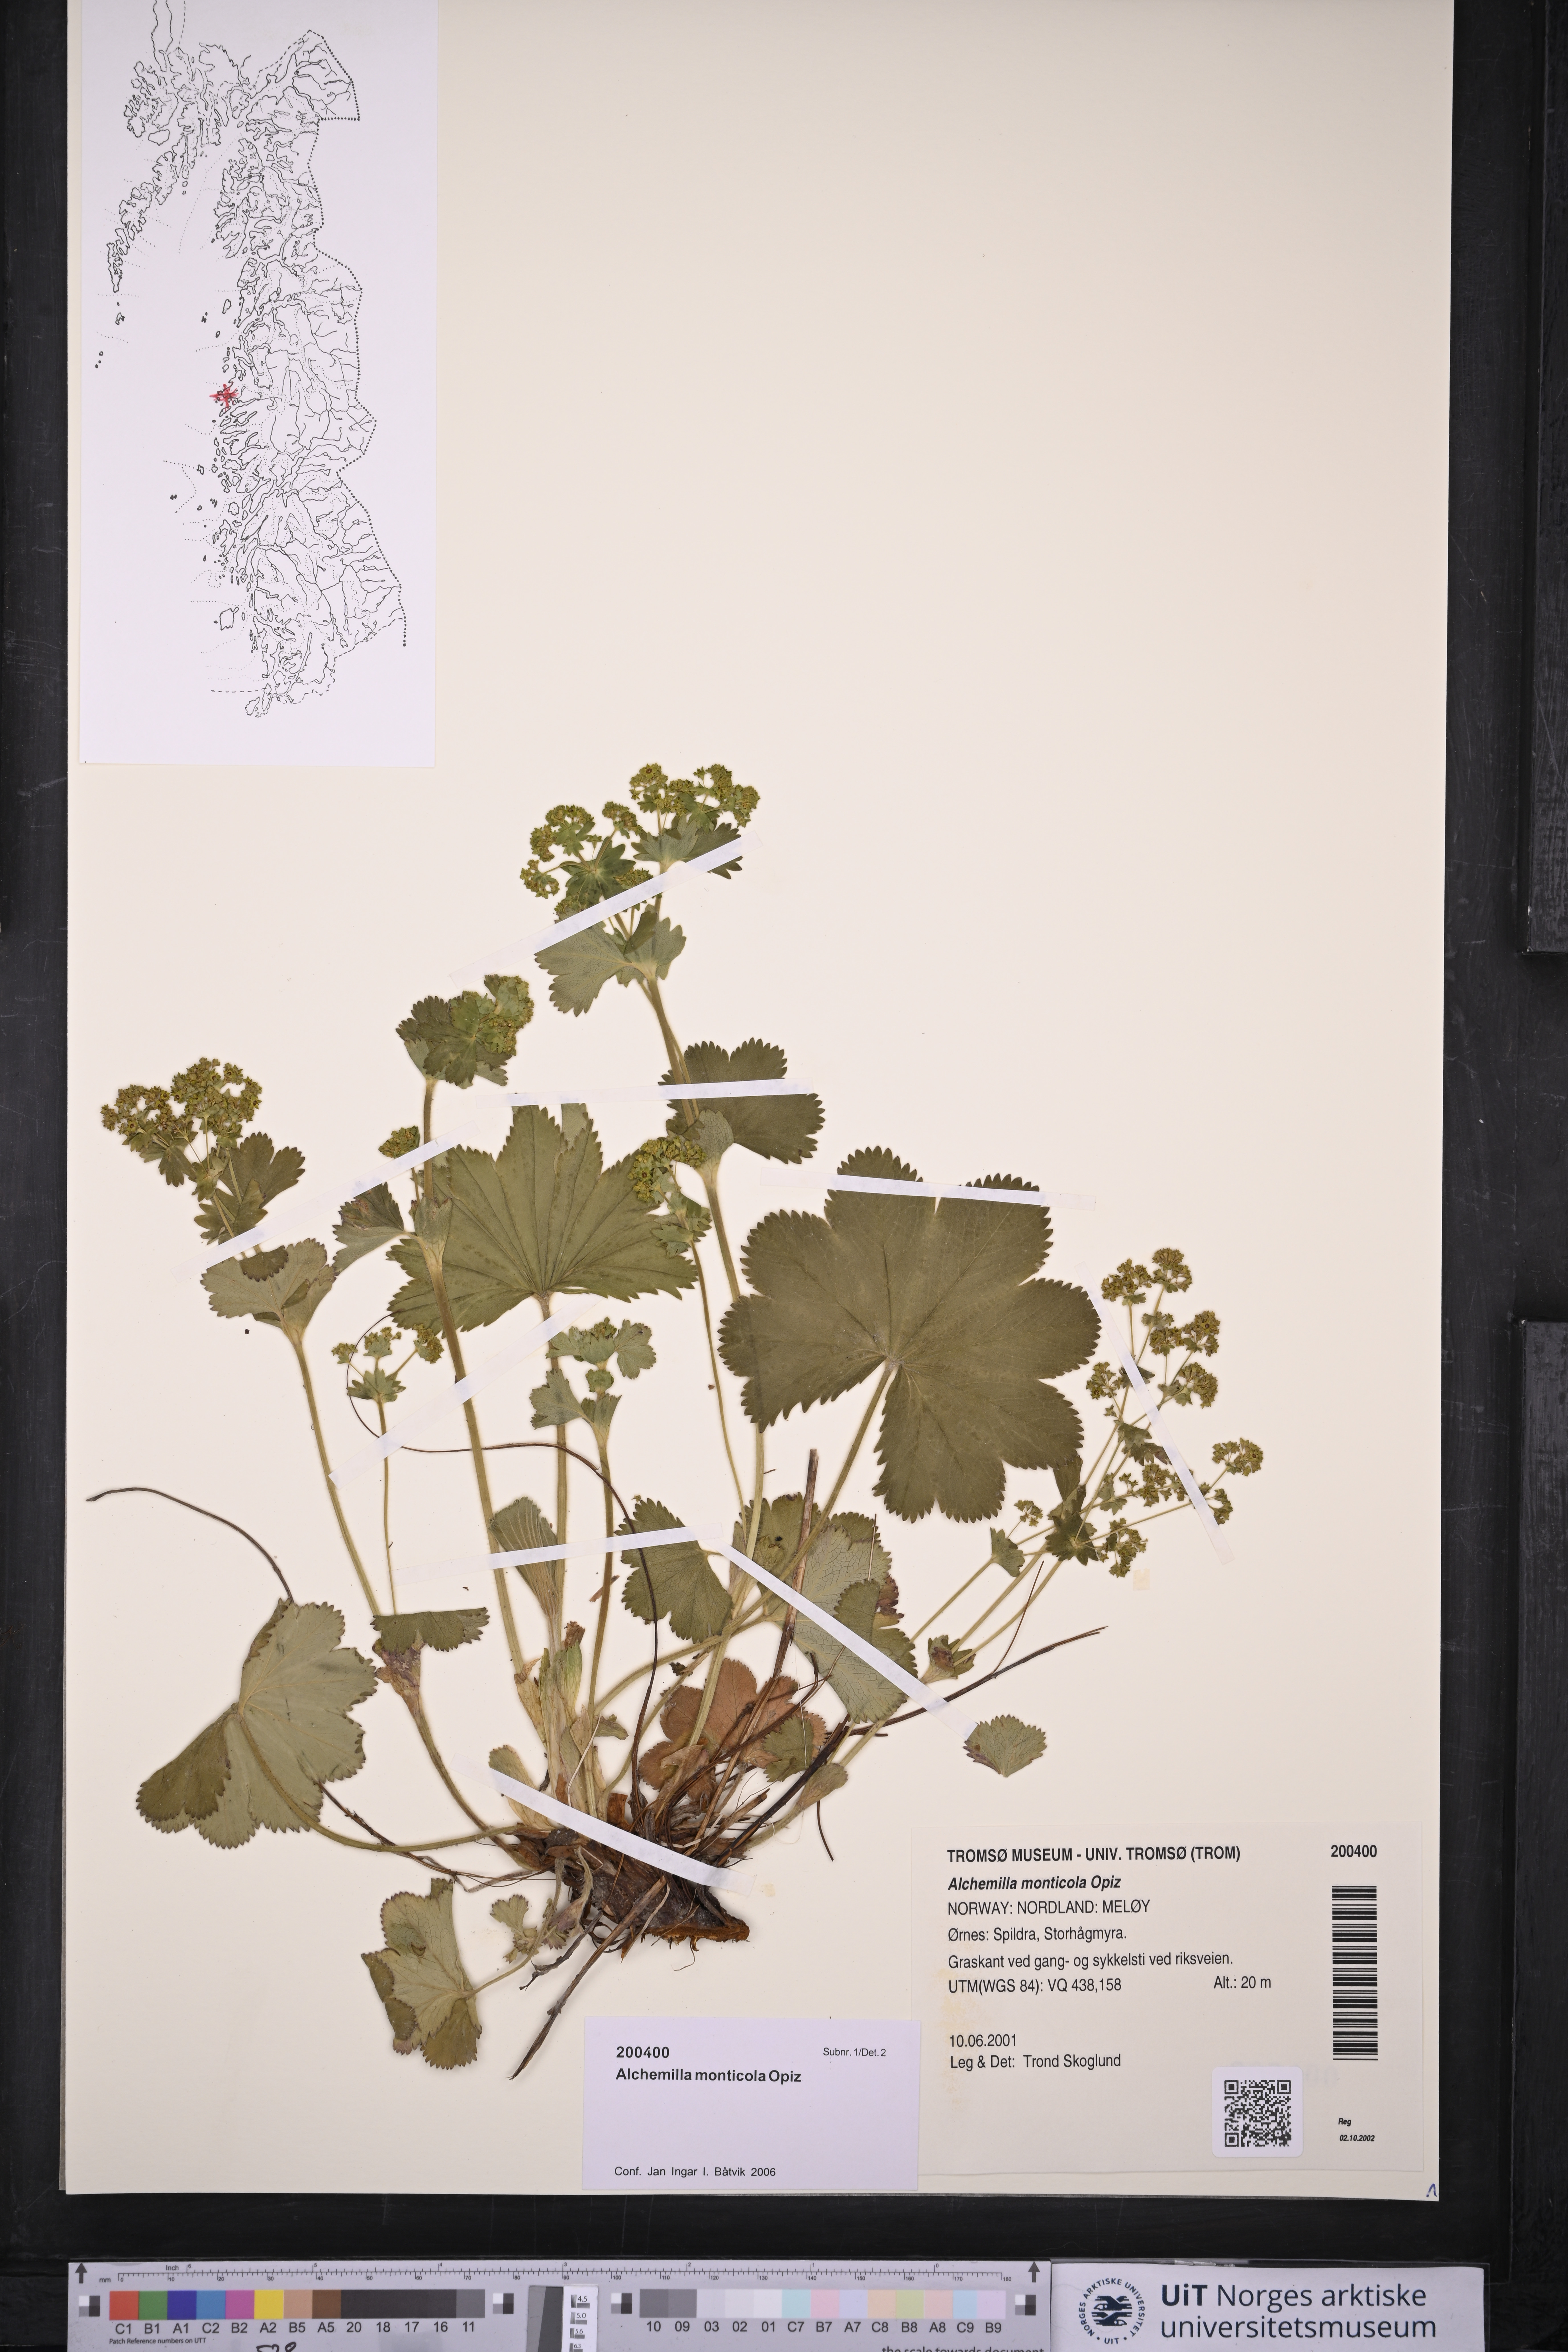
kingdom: Plantae
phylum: Tracheophyta
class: Magnoliopsida
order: Rosales
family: Rosaceae
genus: Alchemilla
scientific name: Alchemilla monticola
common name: Hairy lady's mantle
